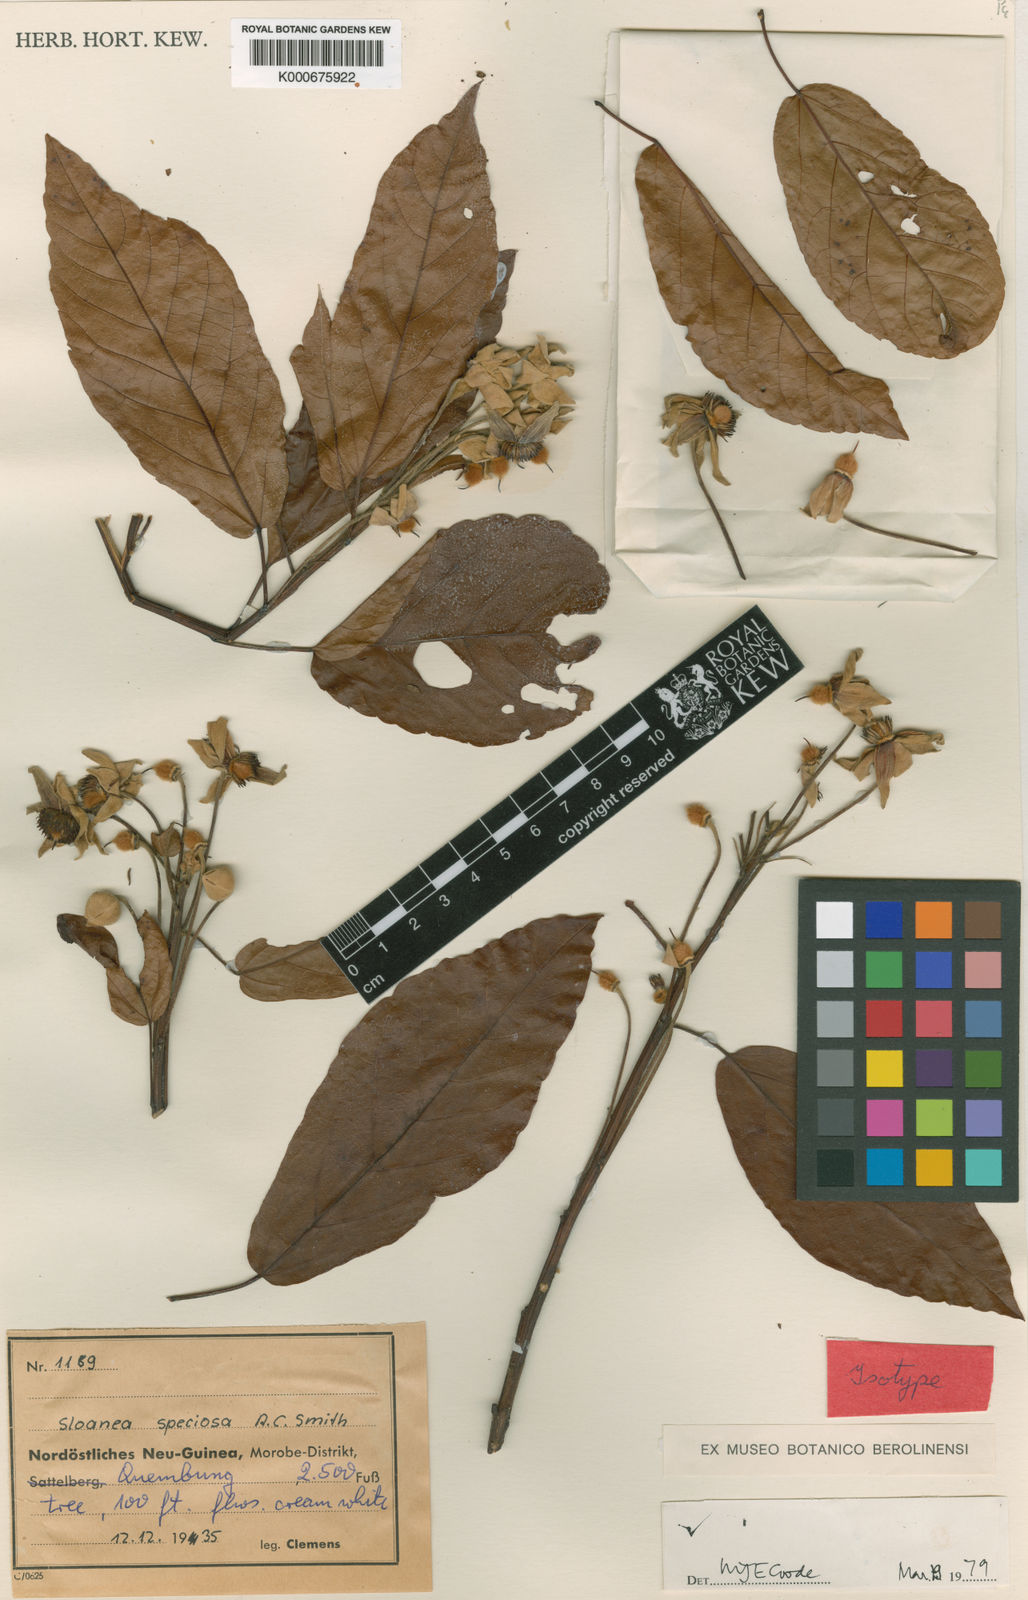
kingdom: Plantae
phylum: Tracheophyta
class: Magnoliopsida
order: Oxalidales
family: Elaeocarpaceae
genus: Sloanea
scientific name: Sloanea
